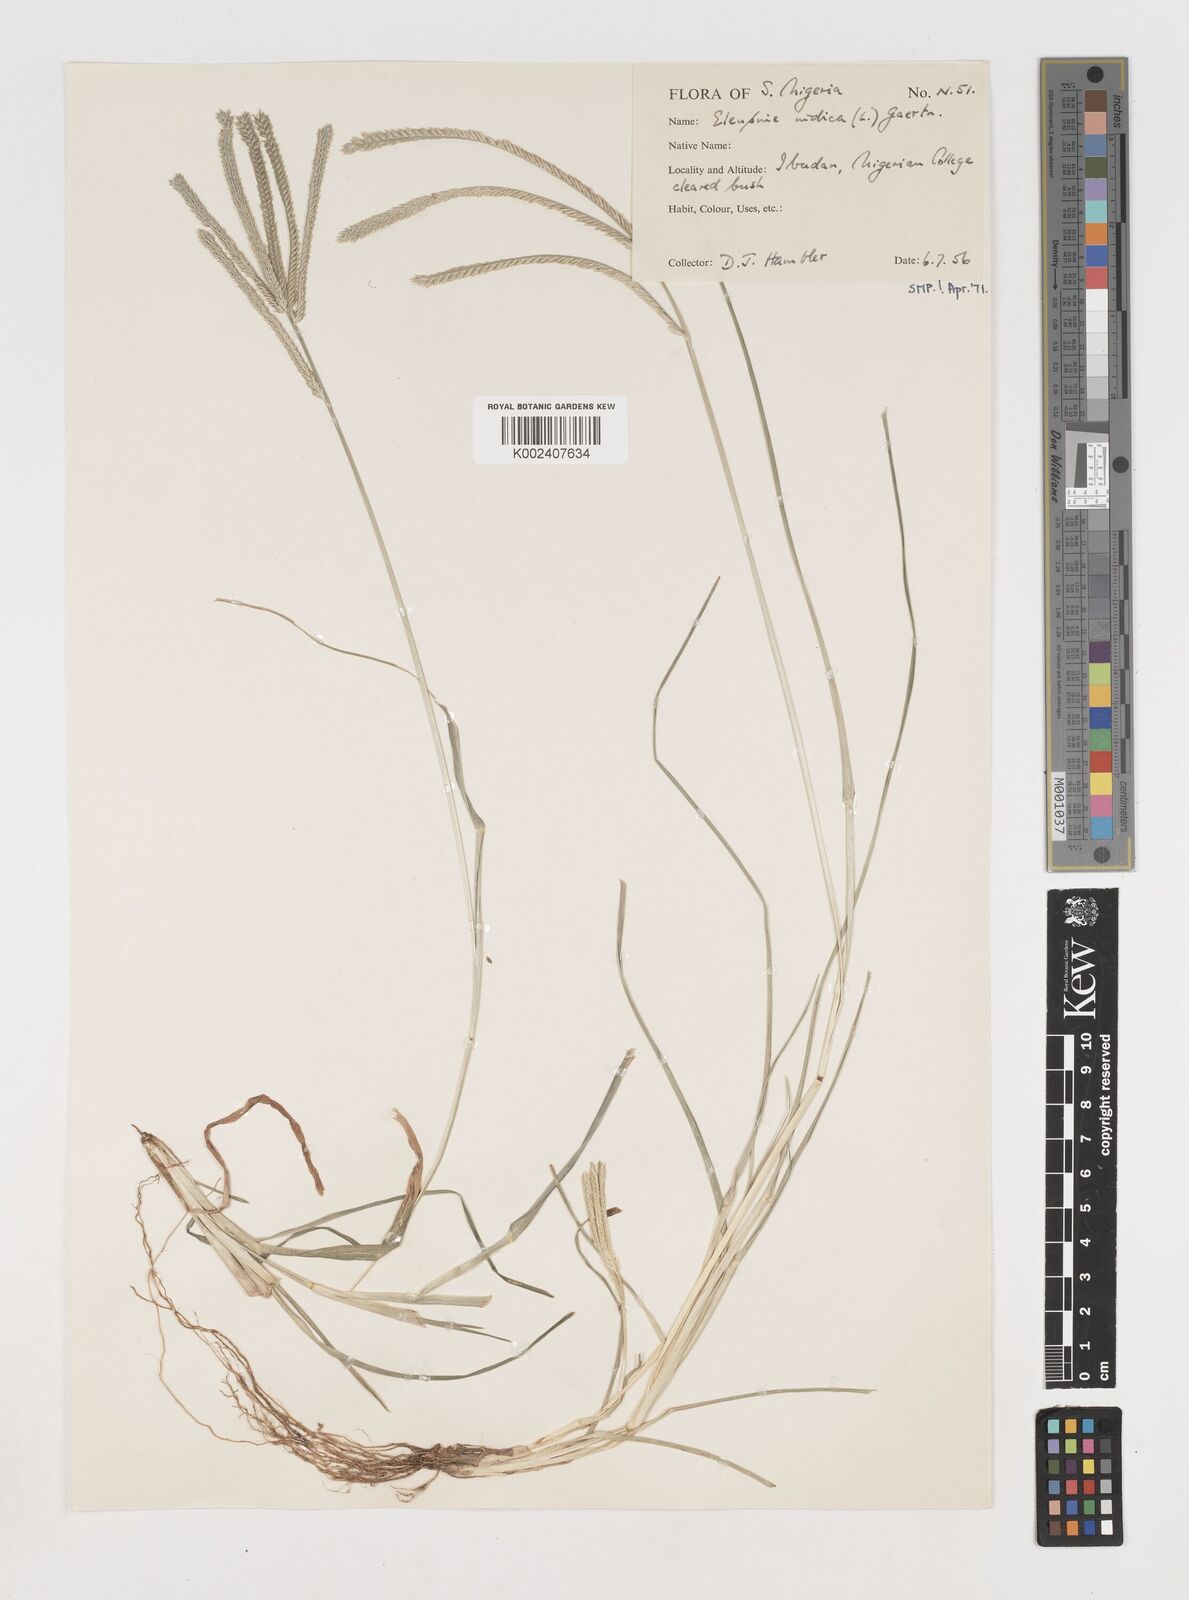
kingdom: Plantae
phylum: Tracheophyta
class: Liliopsida
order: Poales
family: Poaceae
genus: Eleusine
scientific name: Eleusine indica
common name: Yard-grass
